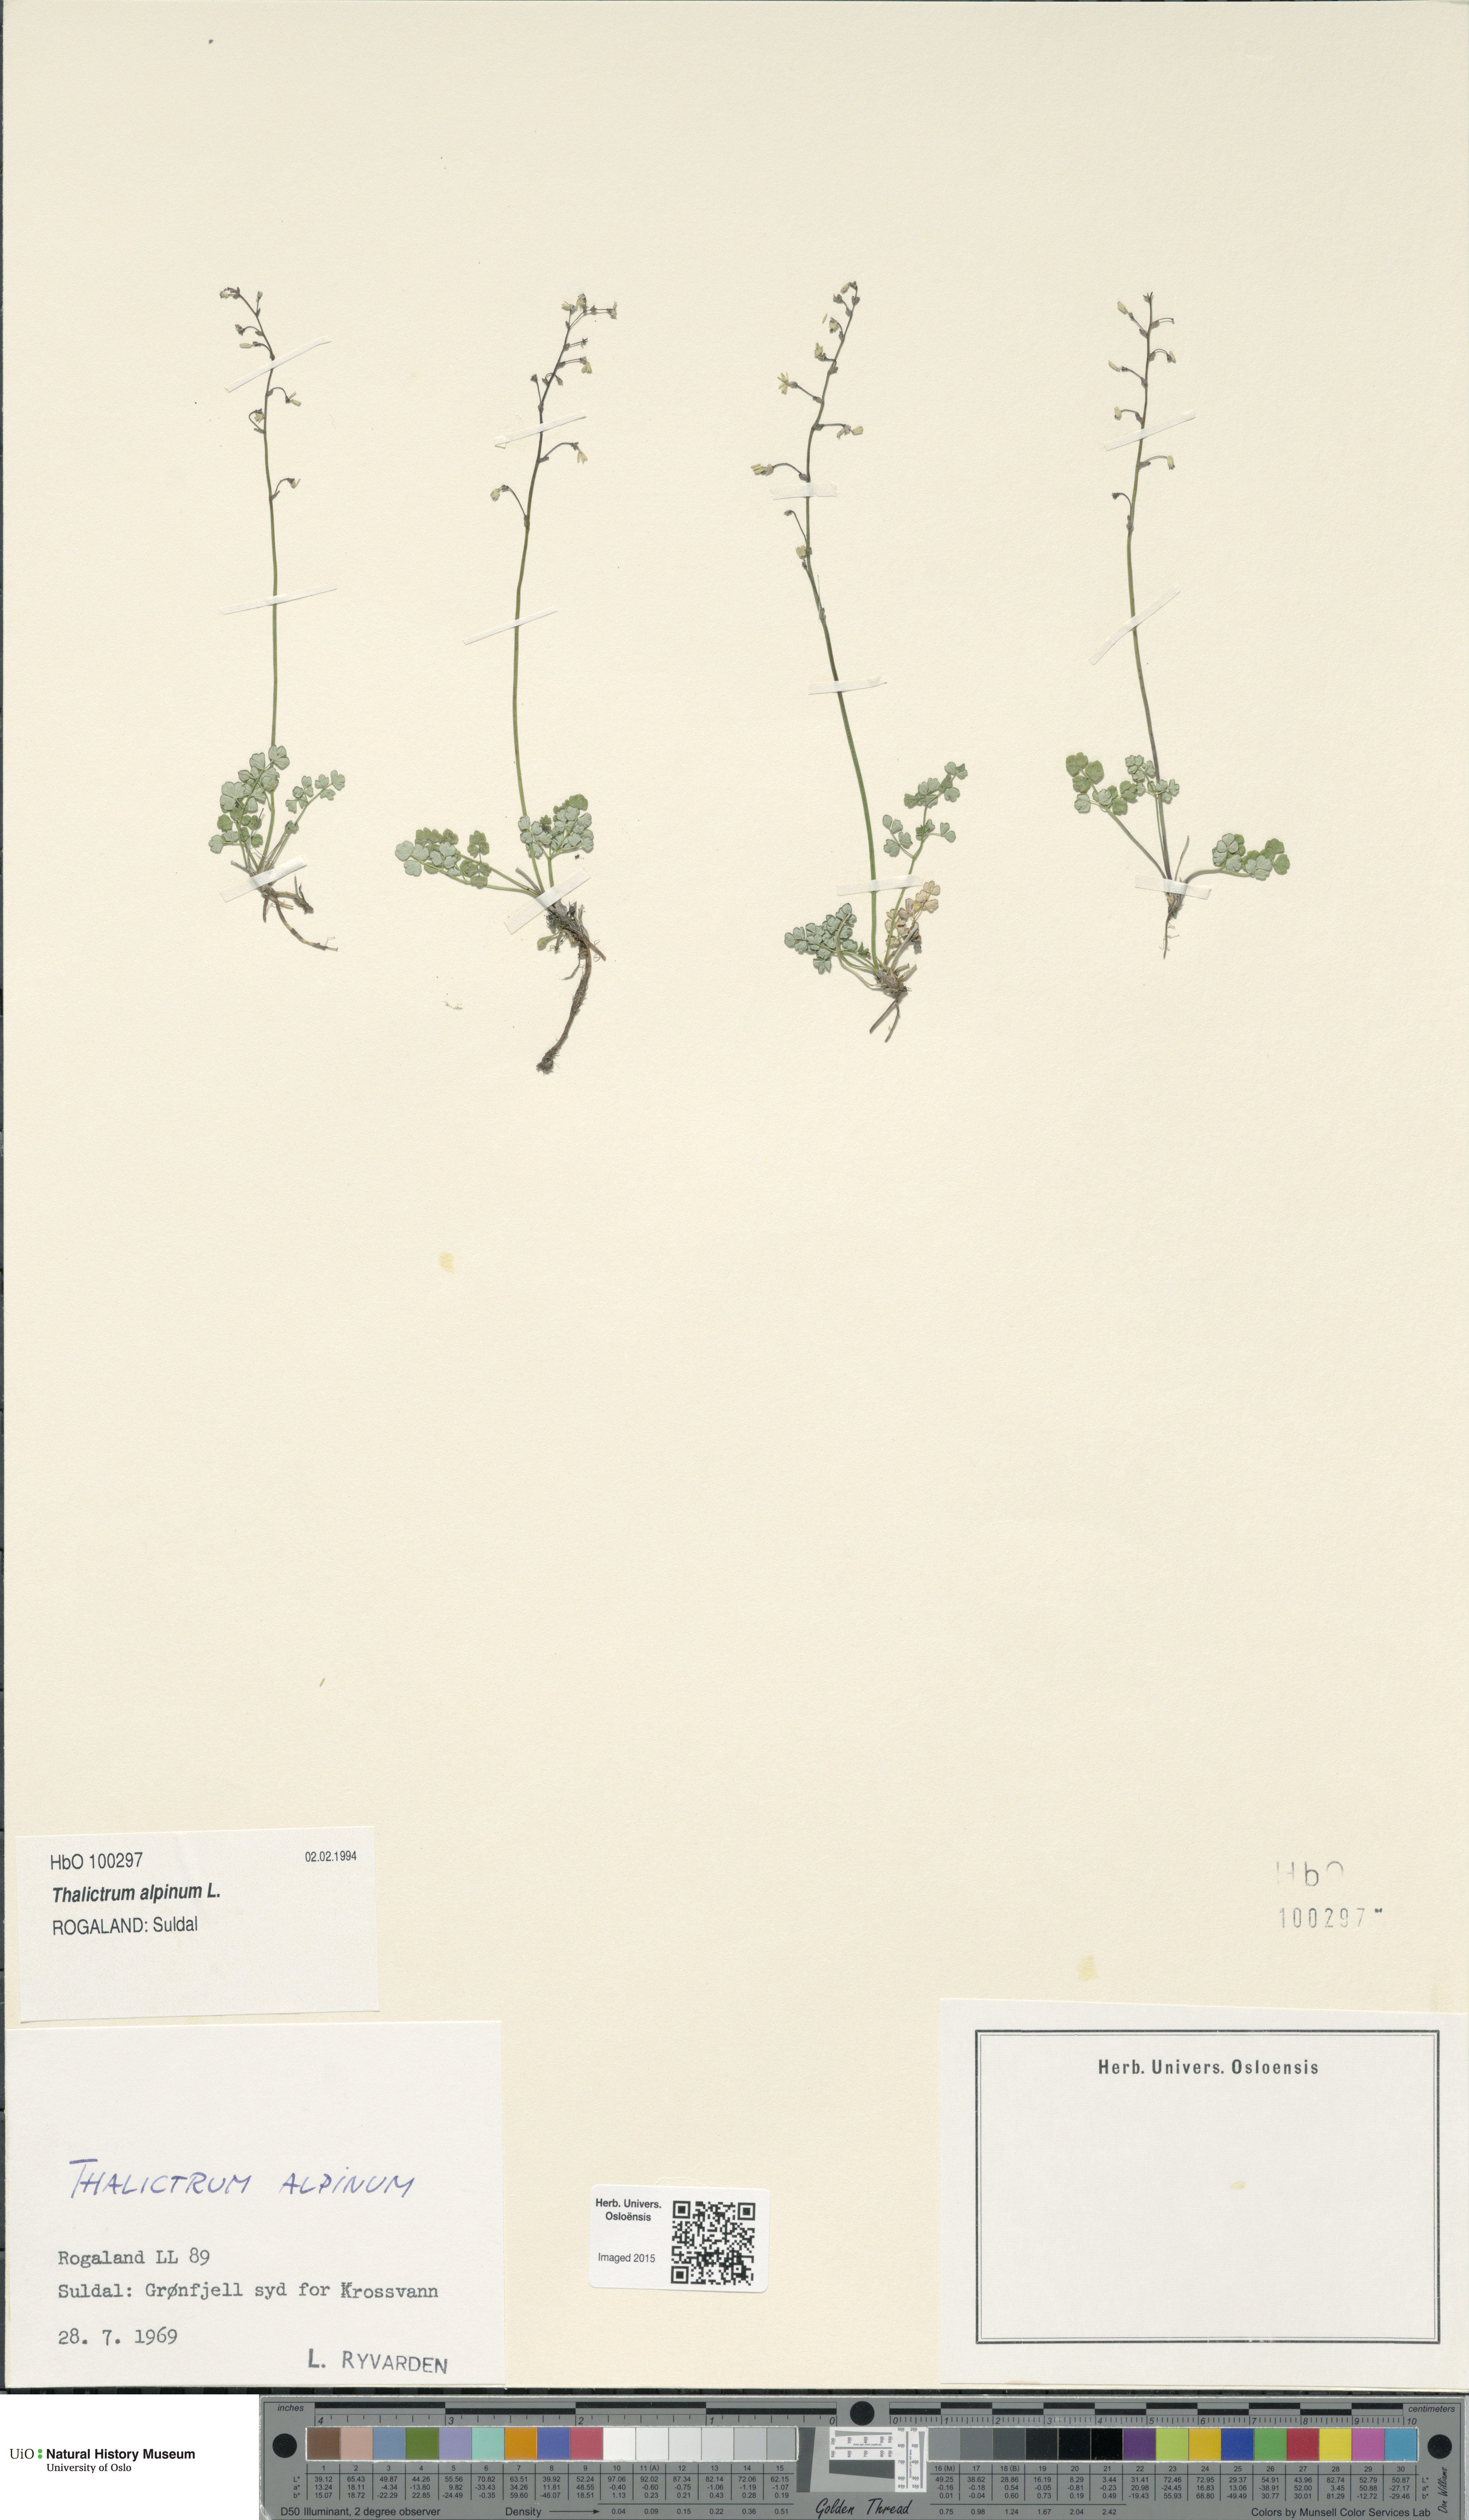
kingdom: Plantae
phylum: Tracheophyta
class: Magnoliopsida
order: Ranunculales
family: Ranunculaceae
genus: Thalictrum
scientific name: Thalictrum alpinum
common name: Alpine meadow-rue
